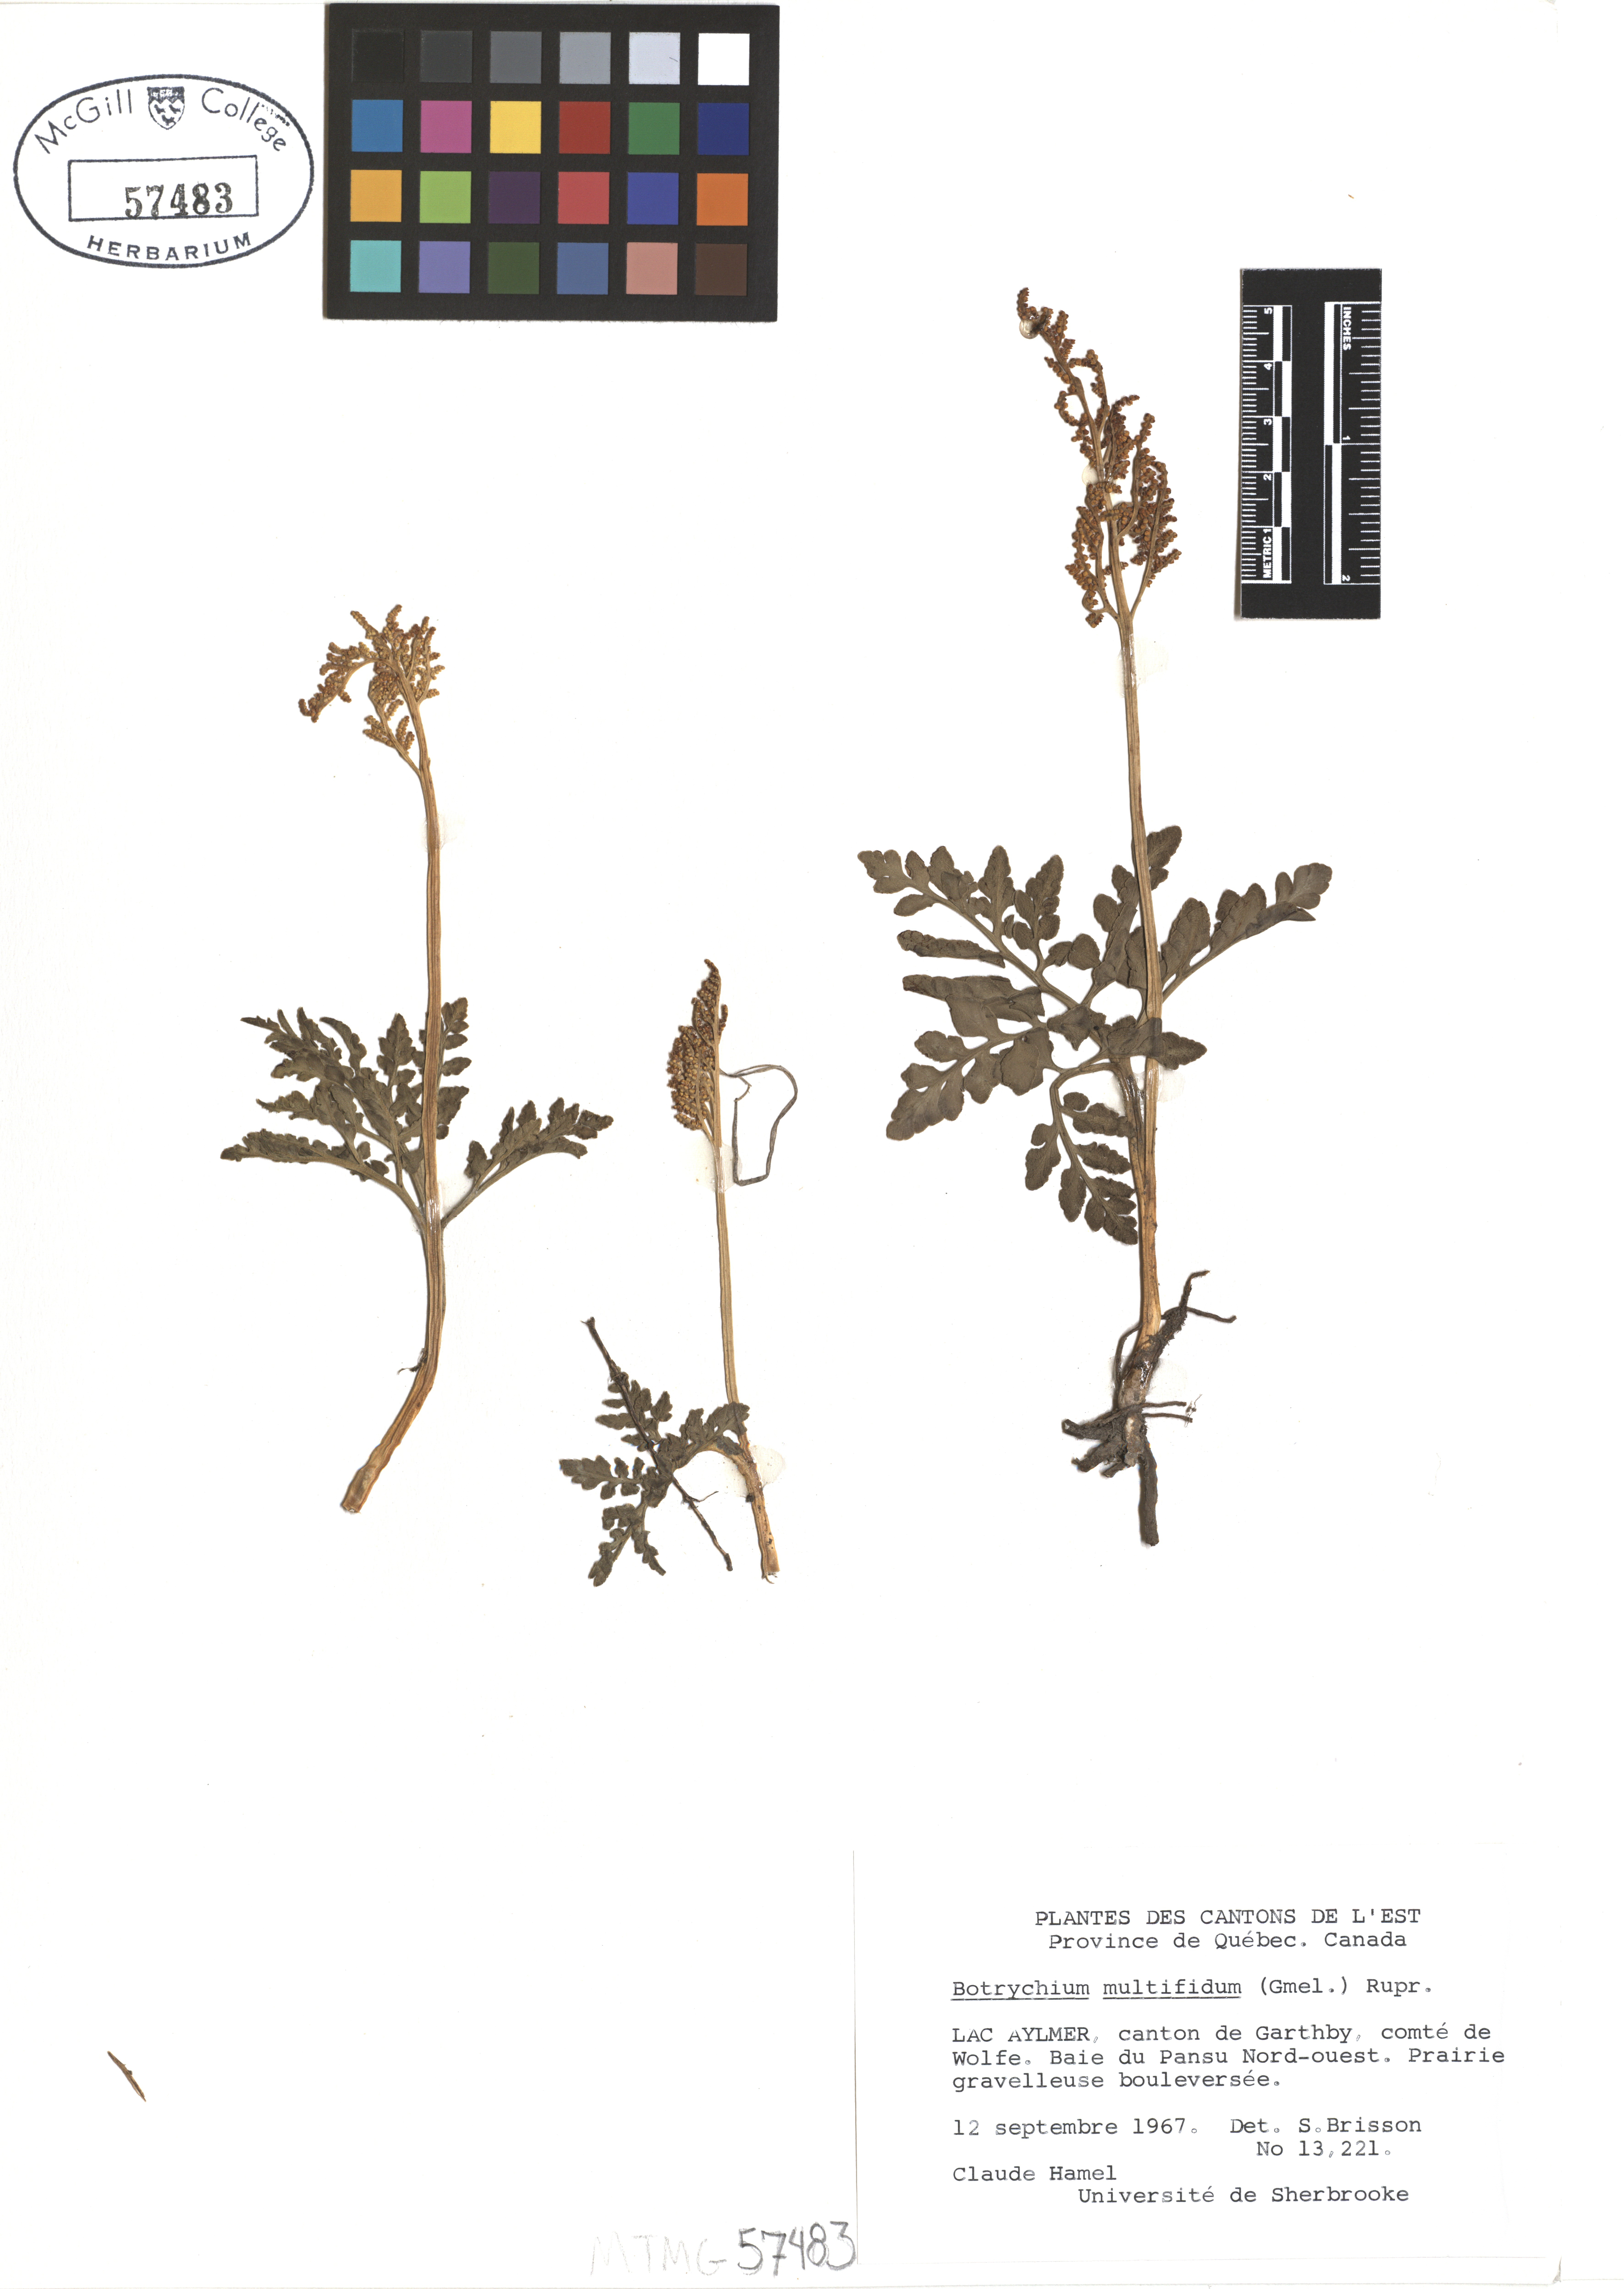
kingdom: Plantae
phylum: Tracheophyta
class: Polypodiopsida
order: Ophioglossales
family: Ophioglossaceae
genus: Sceptridium
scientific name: Sceptridium multifidum
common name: Leathery grape fern
